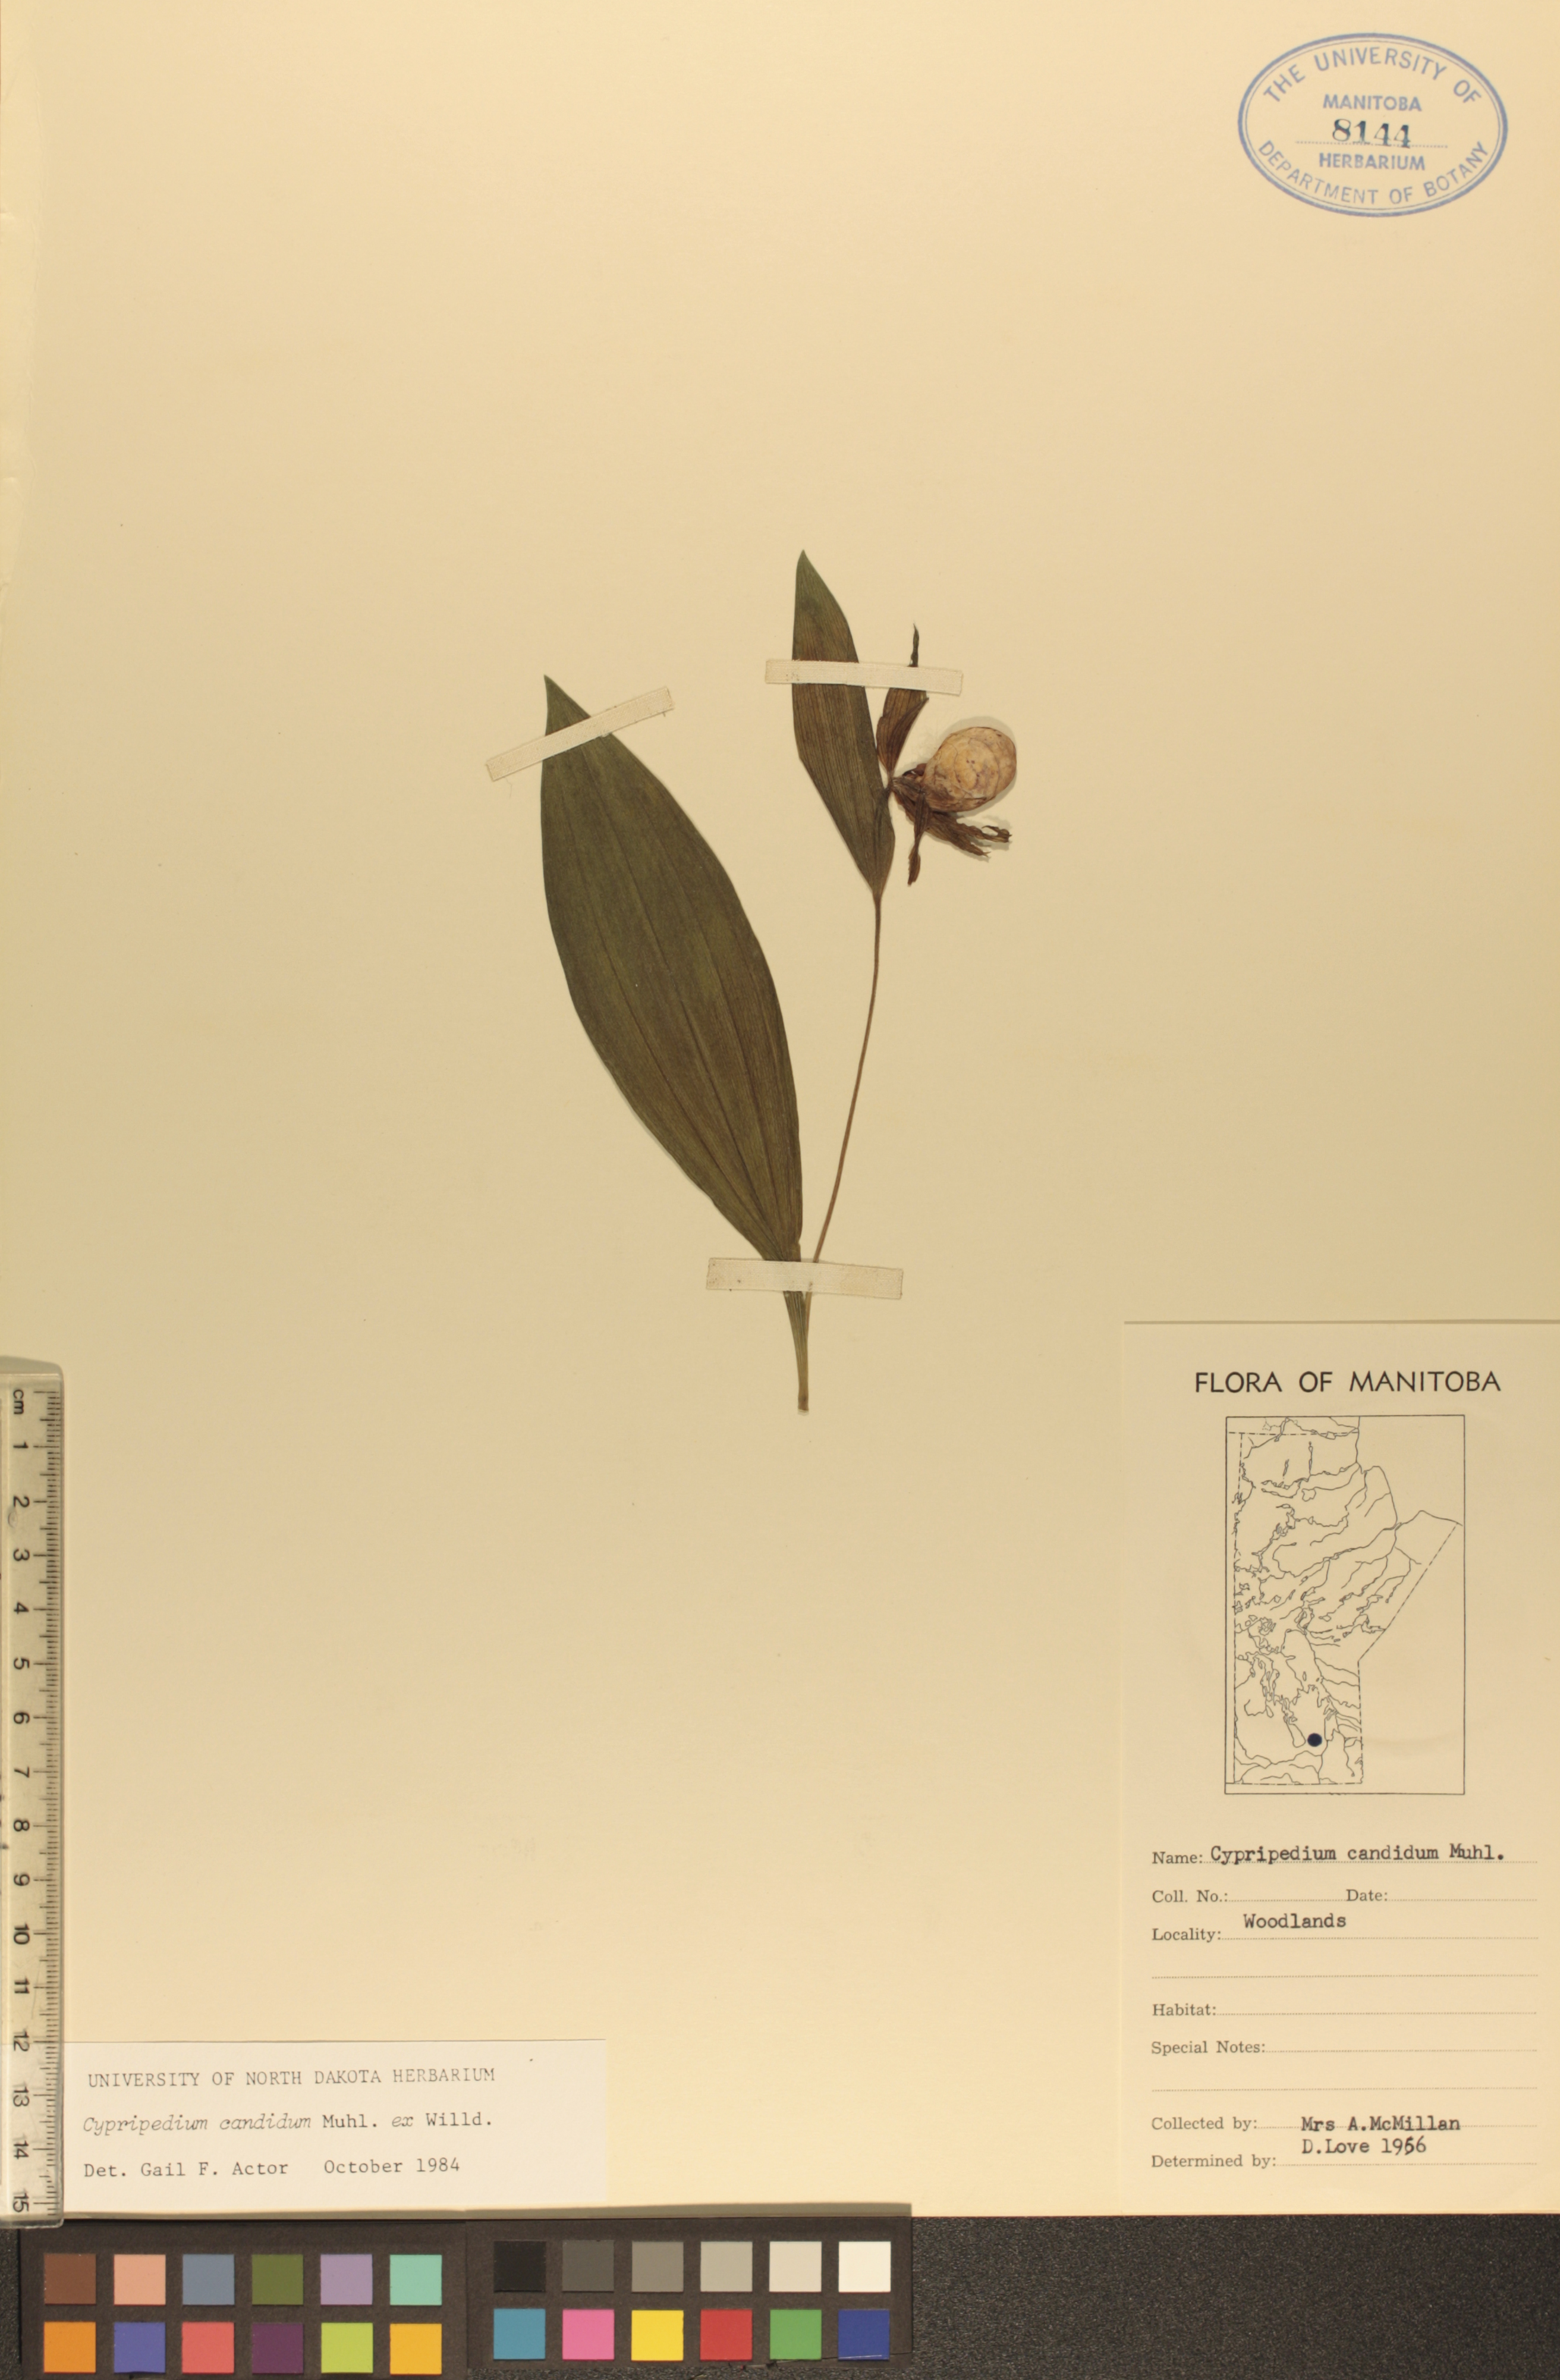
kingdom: Plantae
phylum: Tracheophyta
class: Liliopsida
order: Asparagales
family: Orchidaceae
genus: Cypripedium
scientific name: Cypripedium candidum
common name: White lady's-slipper
